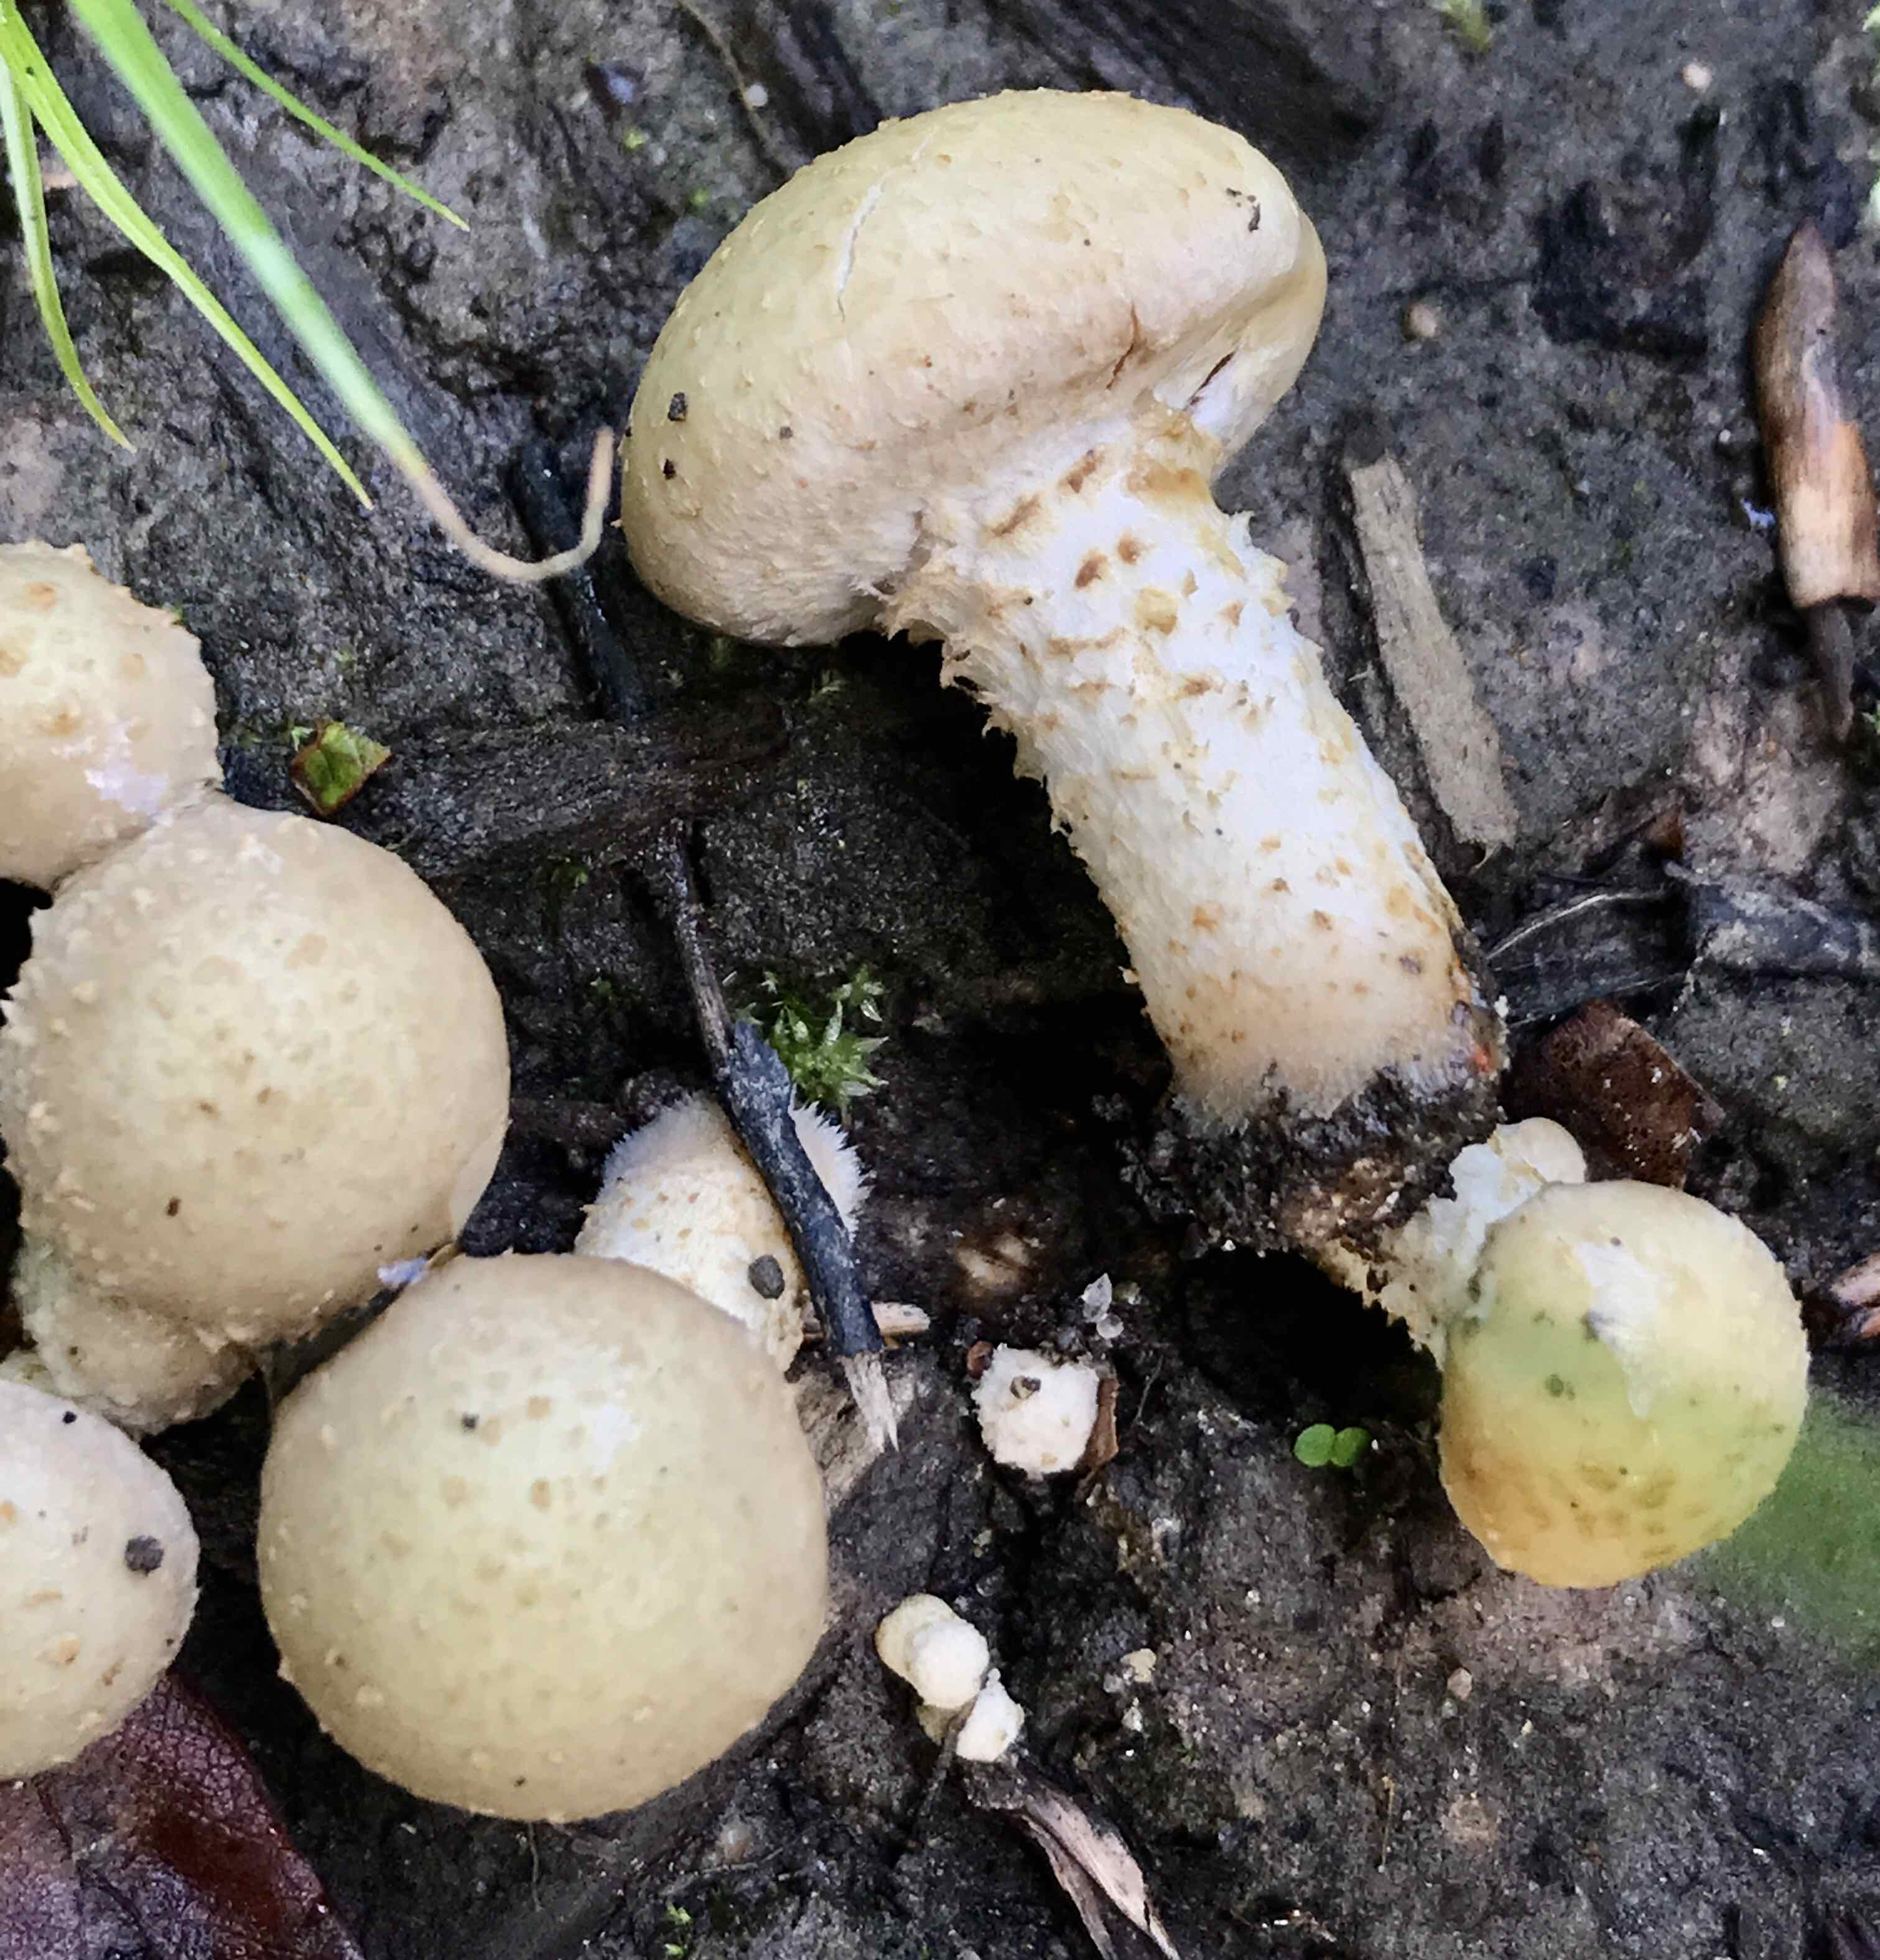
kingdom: Fungi
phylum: Basidiomycota
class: Agaricomycetes
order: Agaricales
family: Strophariaceae
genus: Pholiota
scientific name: Pholiota gummosa
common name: grøngul skælhat
